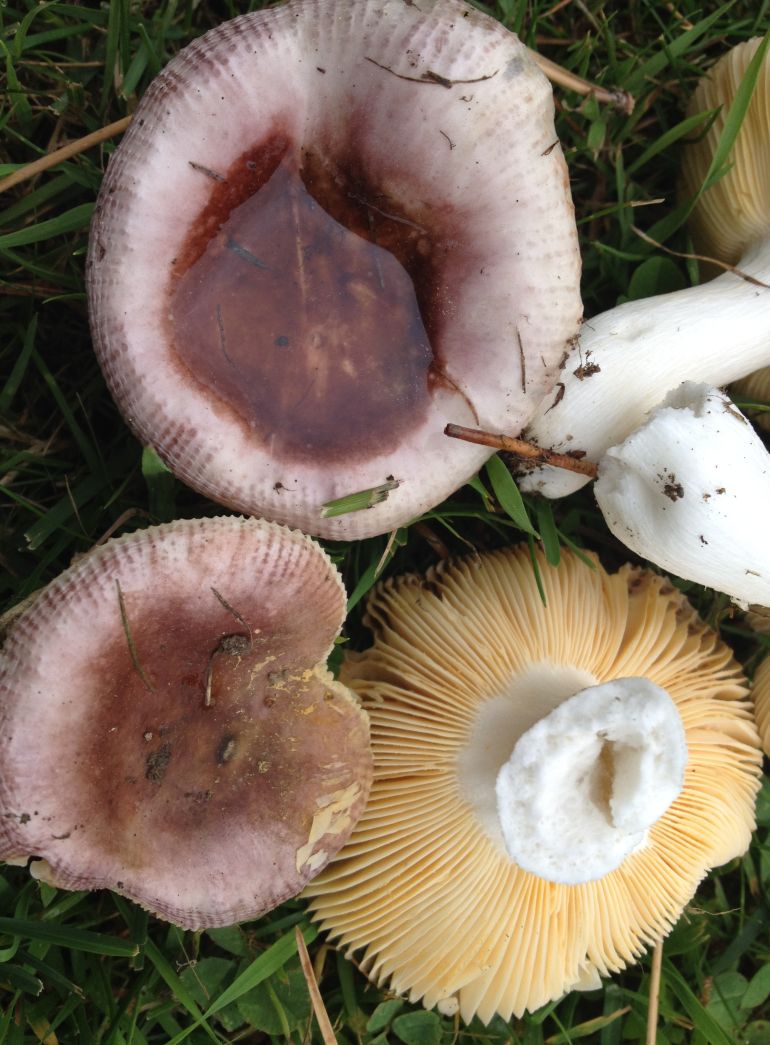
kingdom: Fungi
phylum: Basidiomycota
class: Agaricomycetes
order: Russulales
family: Russulaceae
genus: Russula
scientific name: Russula cessans
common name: fyrre-skørhat
